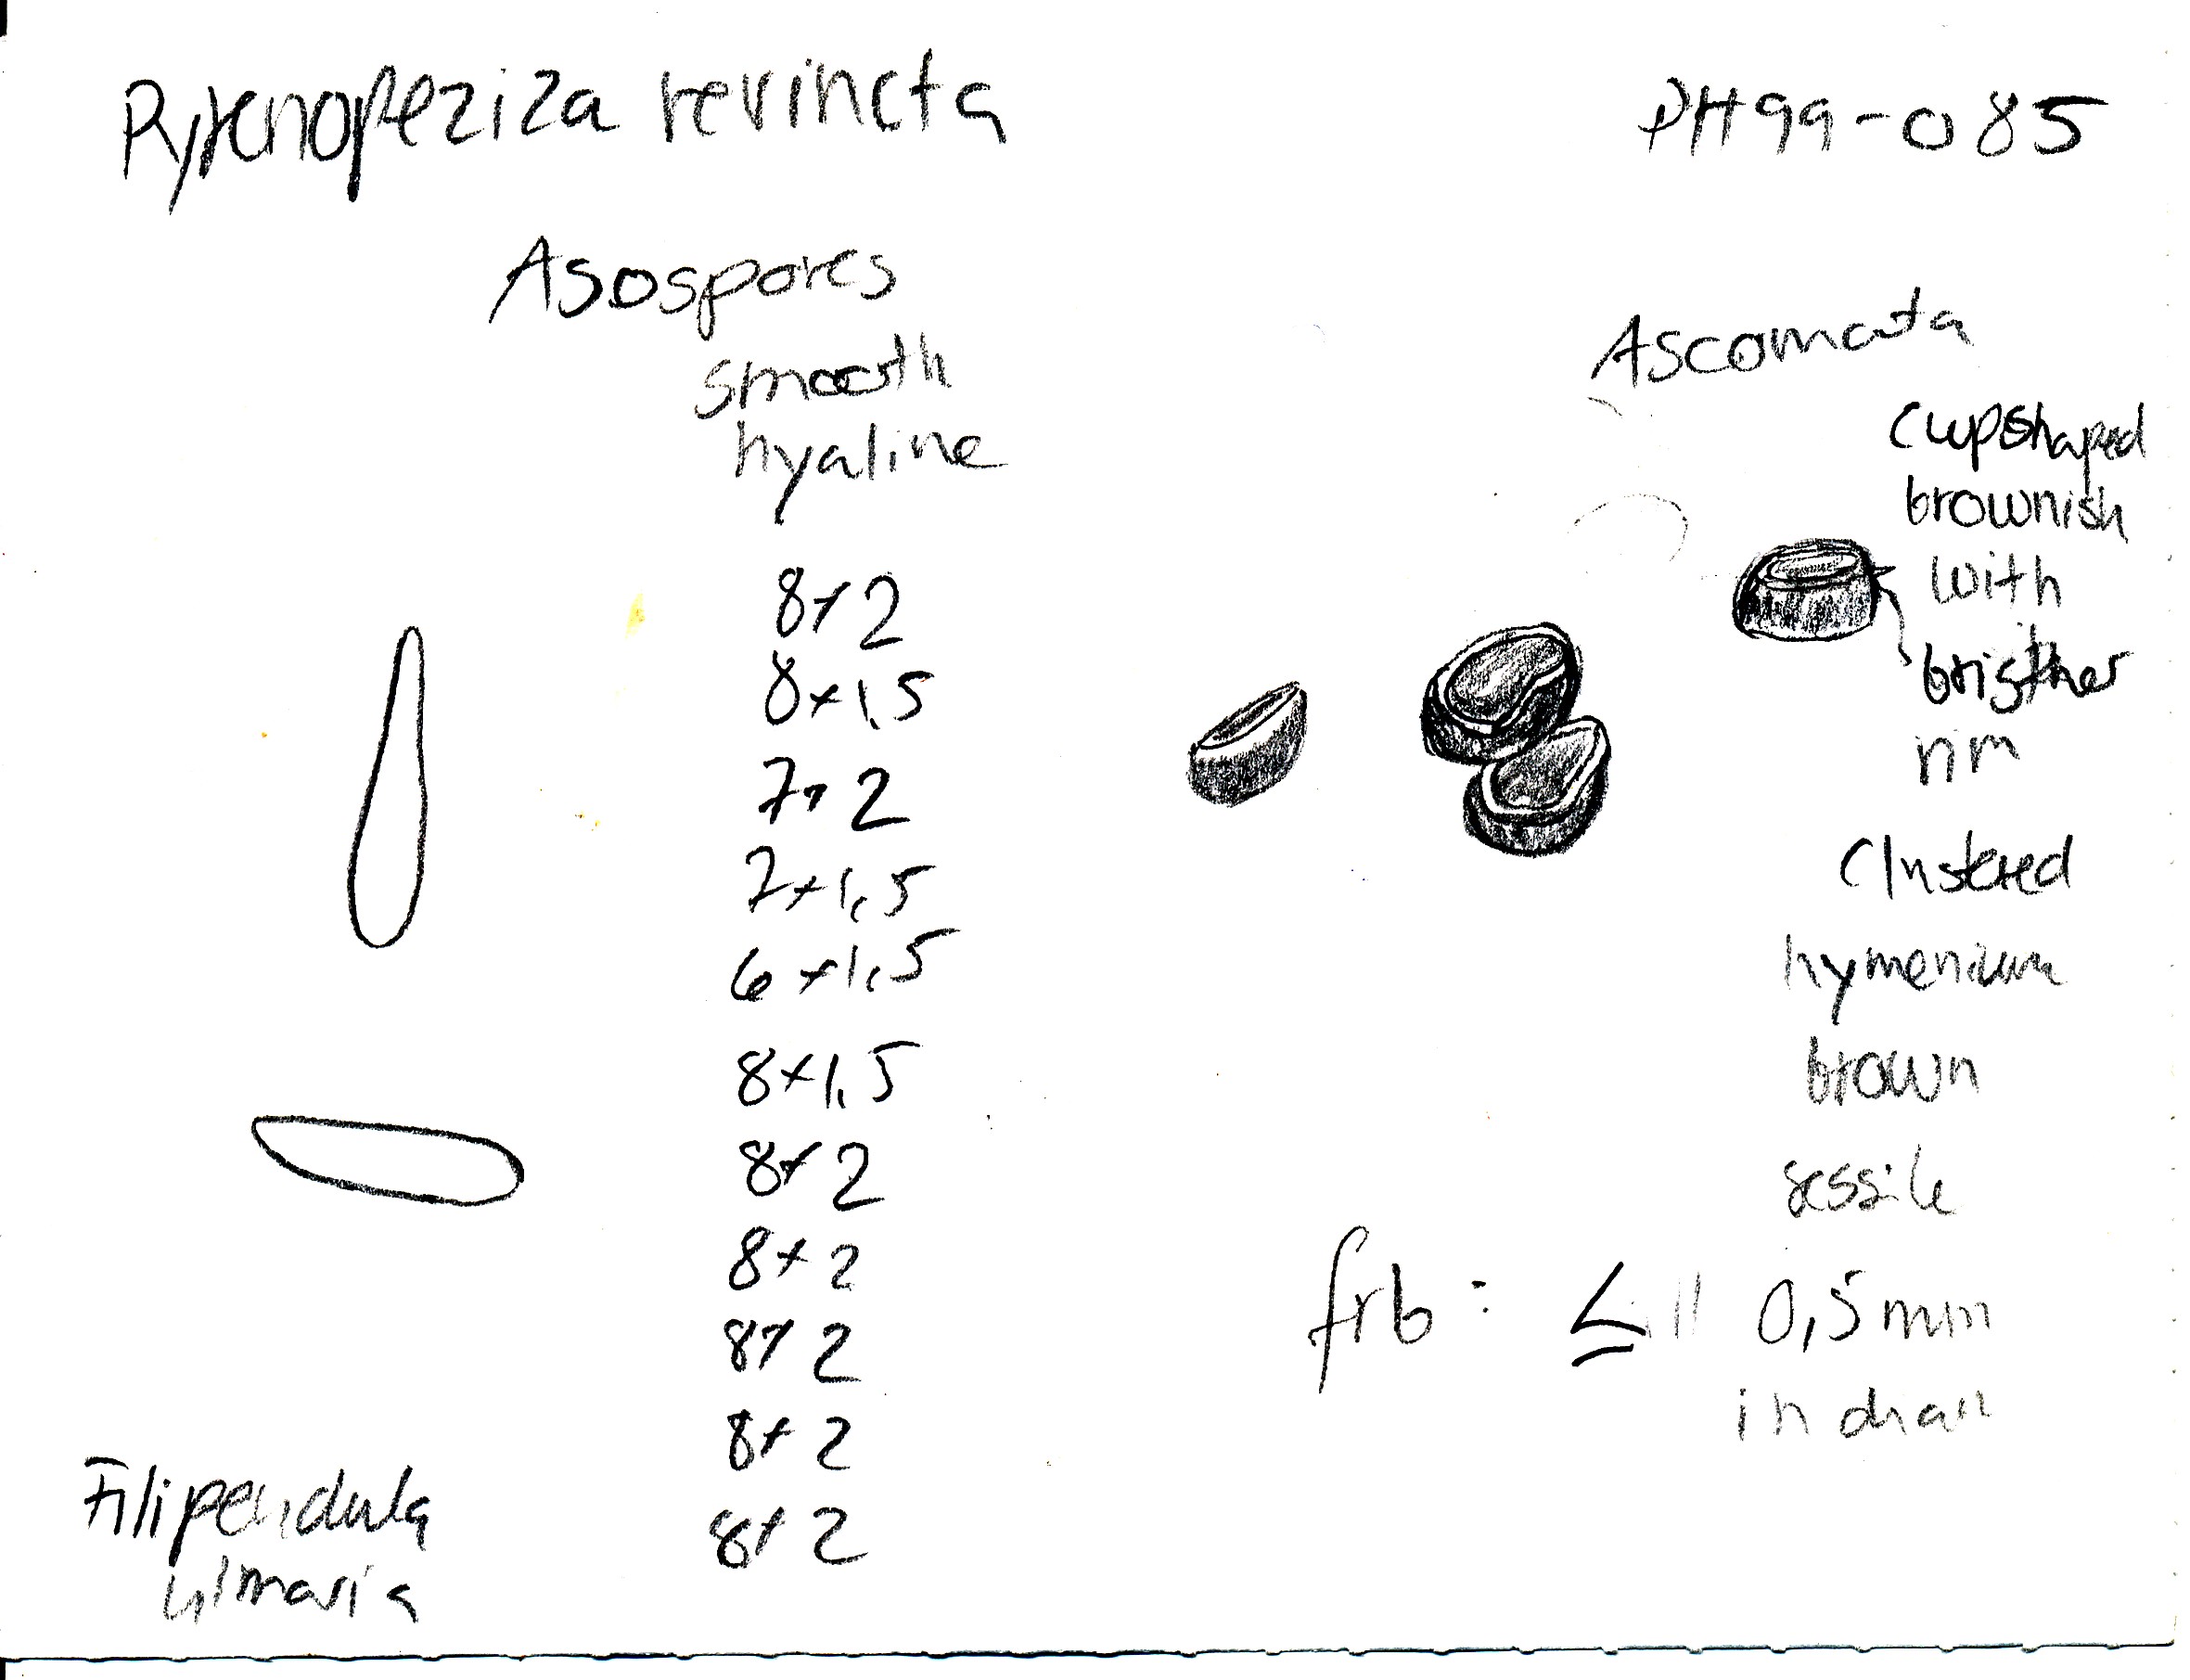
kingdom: Fungi
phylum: Ascomycota
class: Leotiomycetes
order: Helotiales
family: Ploettnerulaceae
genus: Pyrenopeziza
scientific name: Pyrenopeziza pastinacae
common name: stængel-kerneskive
